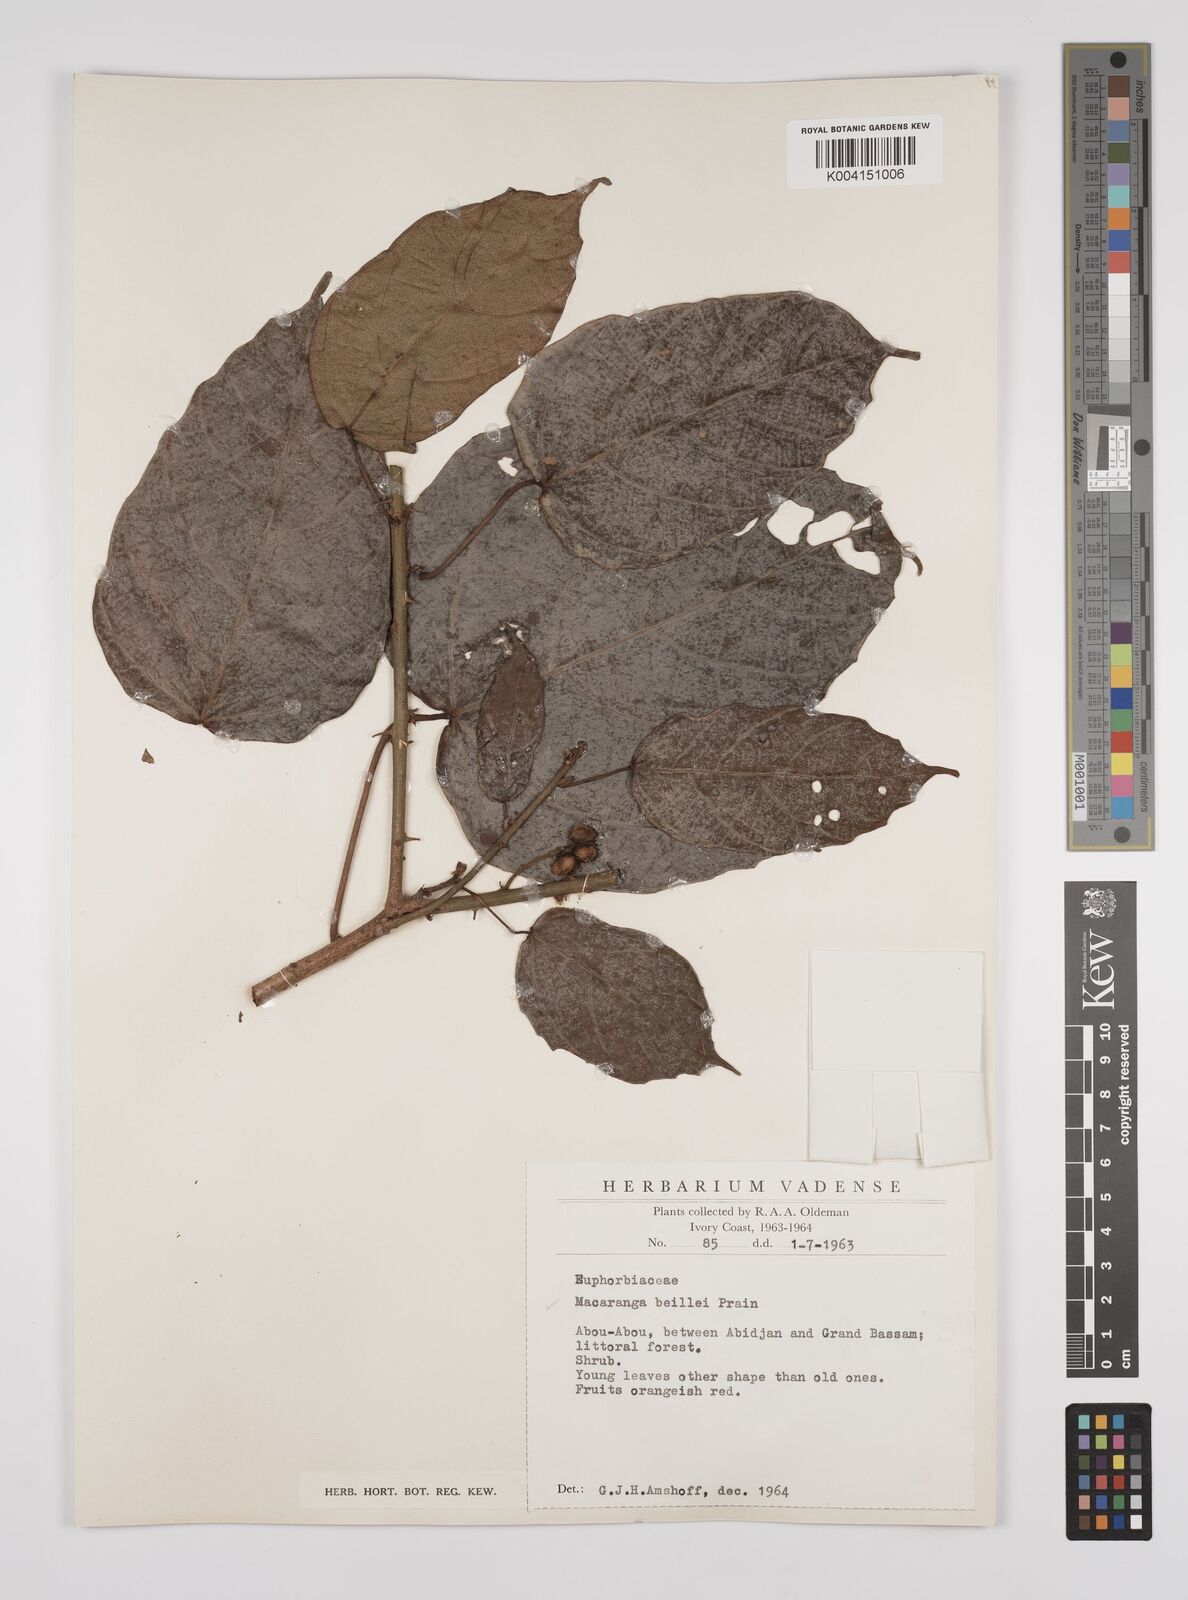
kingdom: Plantae
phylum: Tracheophyta
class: Magnoliopsida
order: Malpighiales
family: Euphorbiaceae
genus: Macaranga
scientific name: Macaranga beillei
